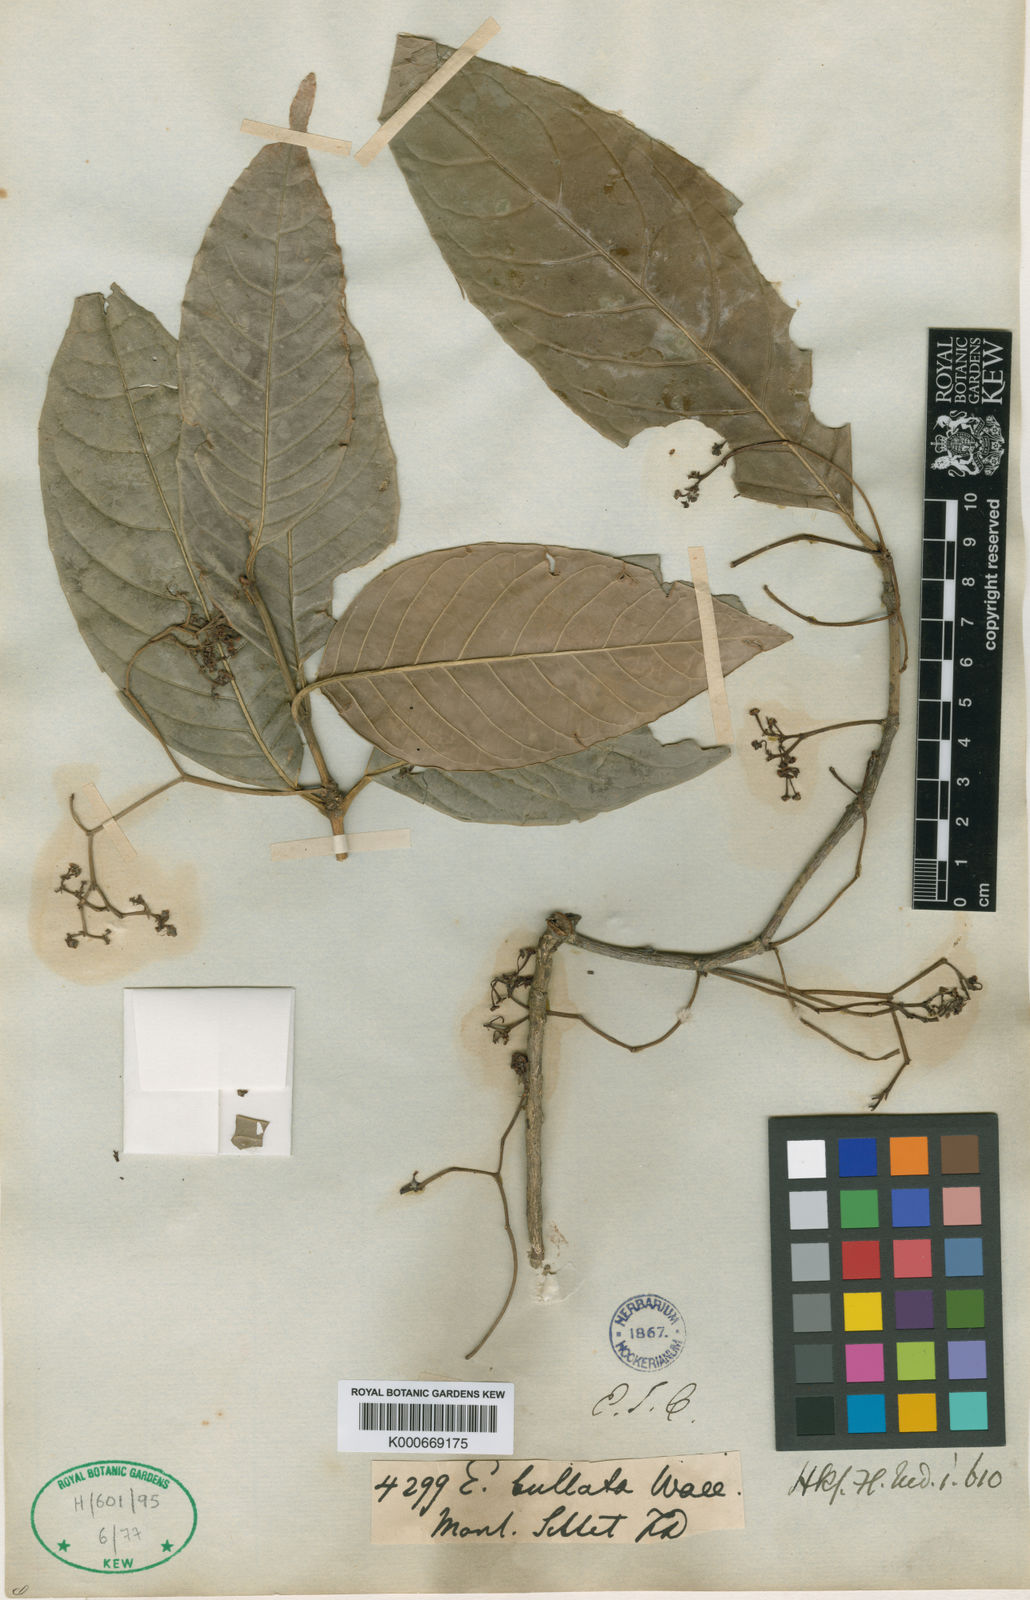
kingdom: Plantae
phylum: Tracheophyta
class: Magnoliopsida
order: Celastrales
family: Celastraceae
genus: Euonymus
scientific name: Euonymus
